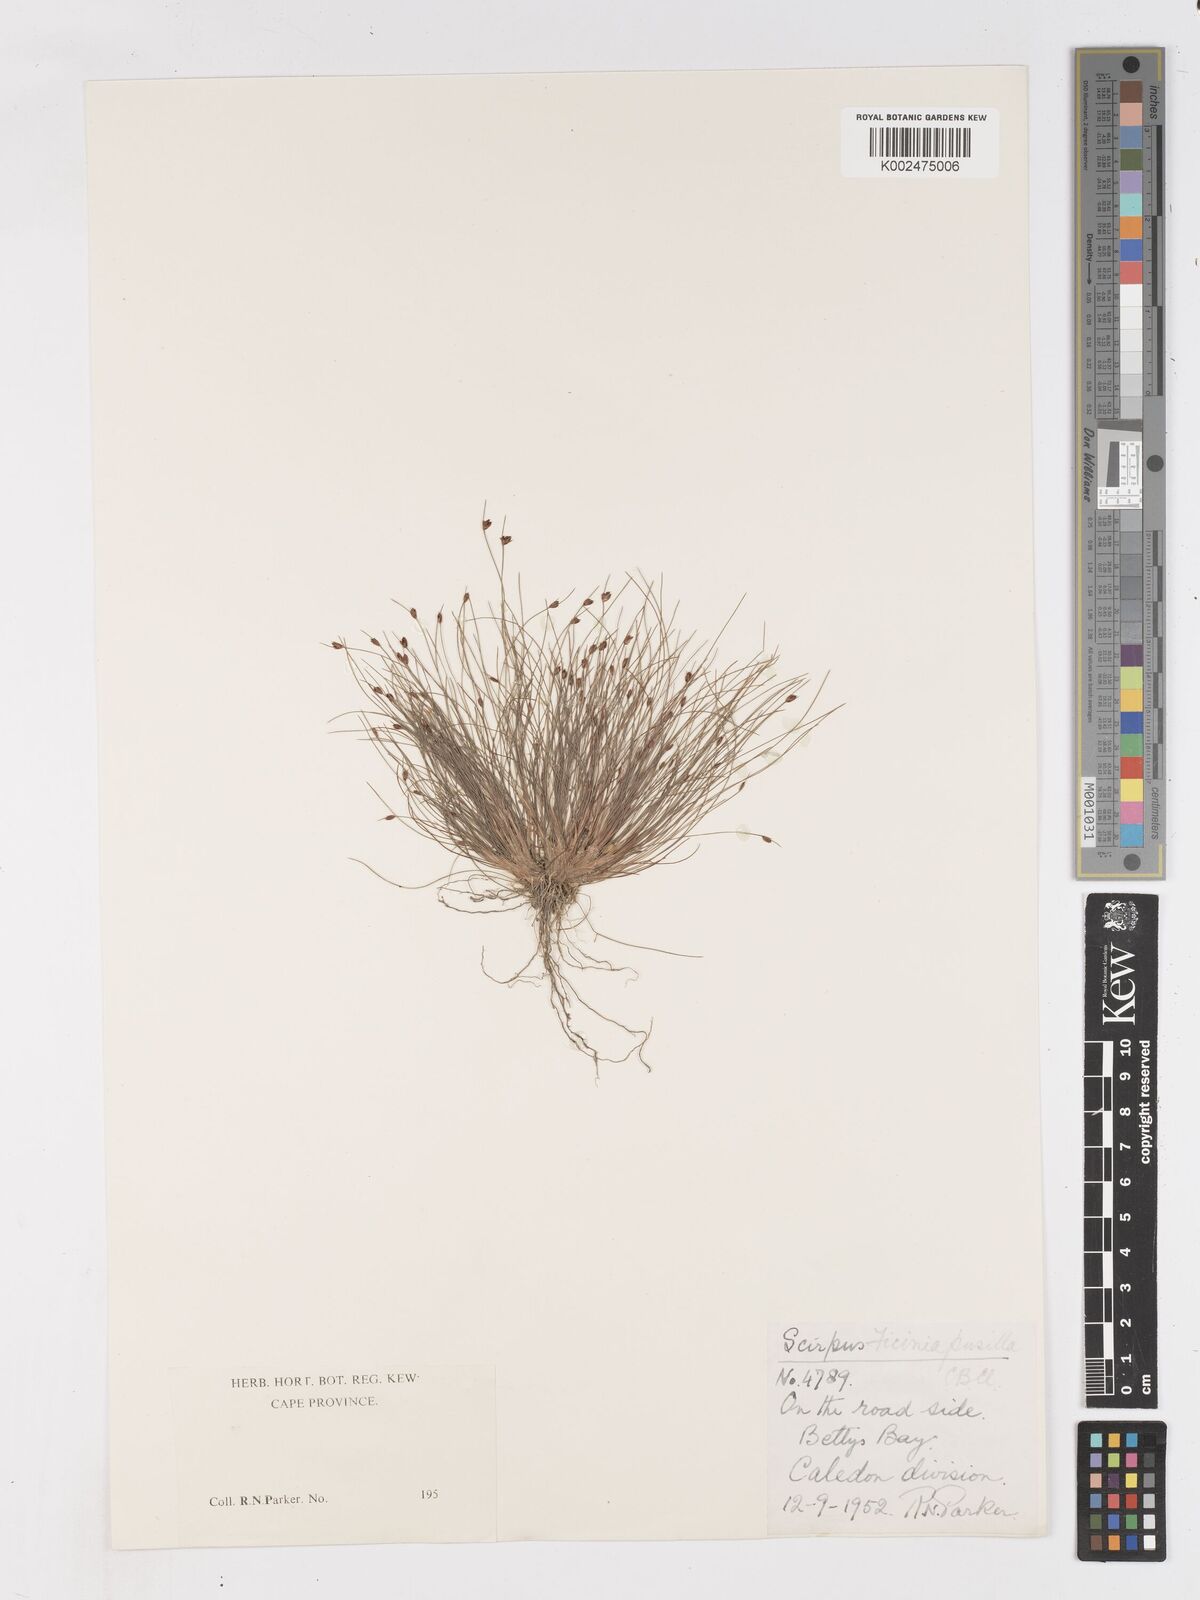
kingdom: Plantae
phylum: Tracheophyta
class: Liliopsida
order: Poales
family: Cyperaceae
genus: Ficinia
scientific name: Ficinia pusilla
